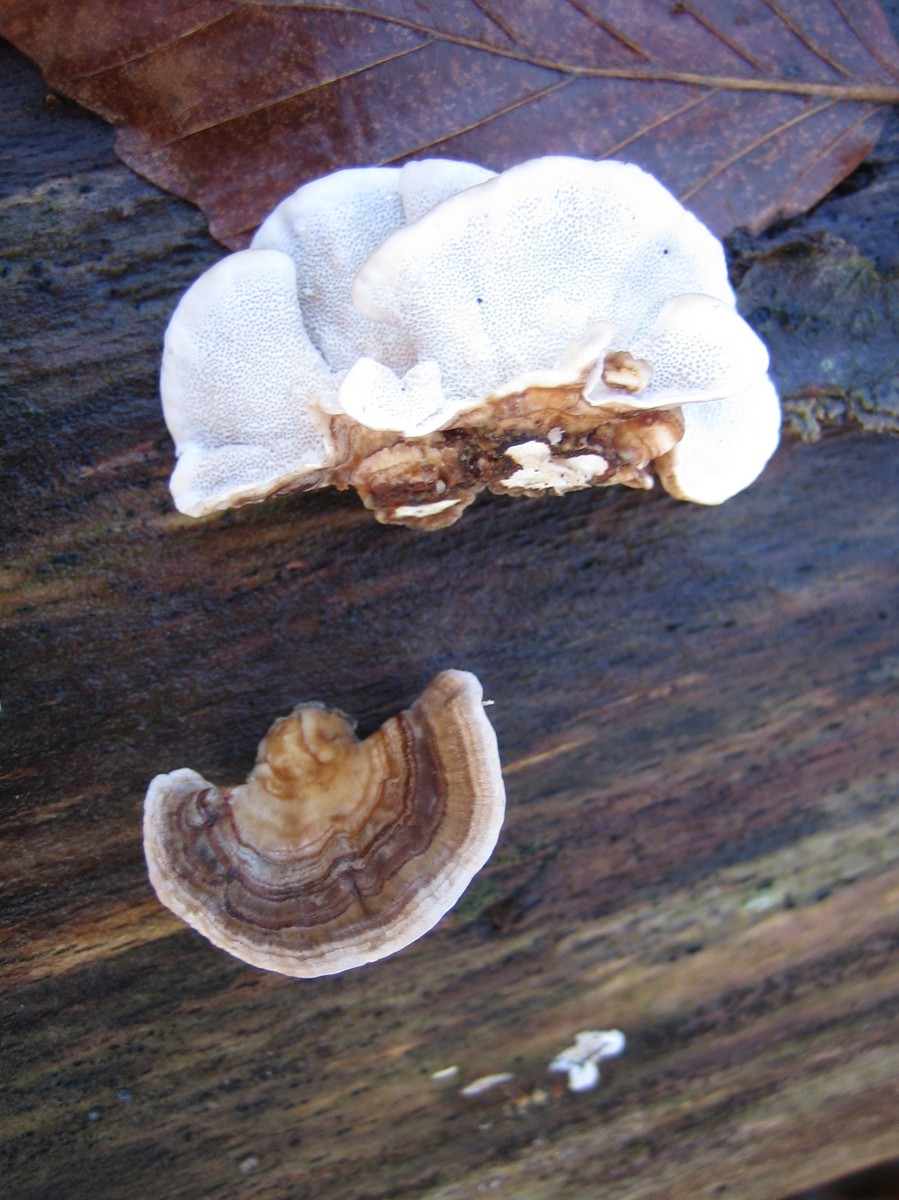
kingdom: Fungi
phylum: Basidiomycota
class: Agaricomycetes
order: Polyporales
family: Polyporaceae
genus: Trametes
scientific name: Trametes versicolor
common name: broget læderporesvamp
